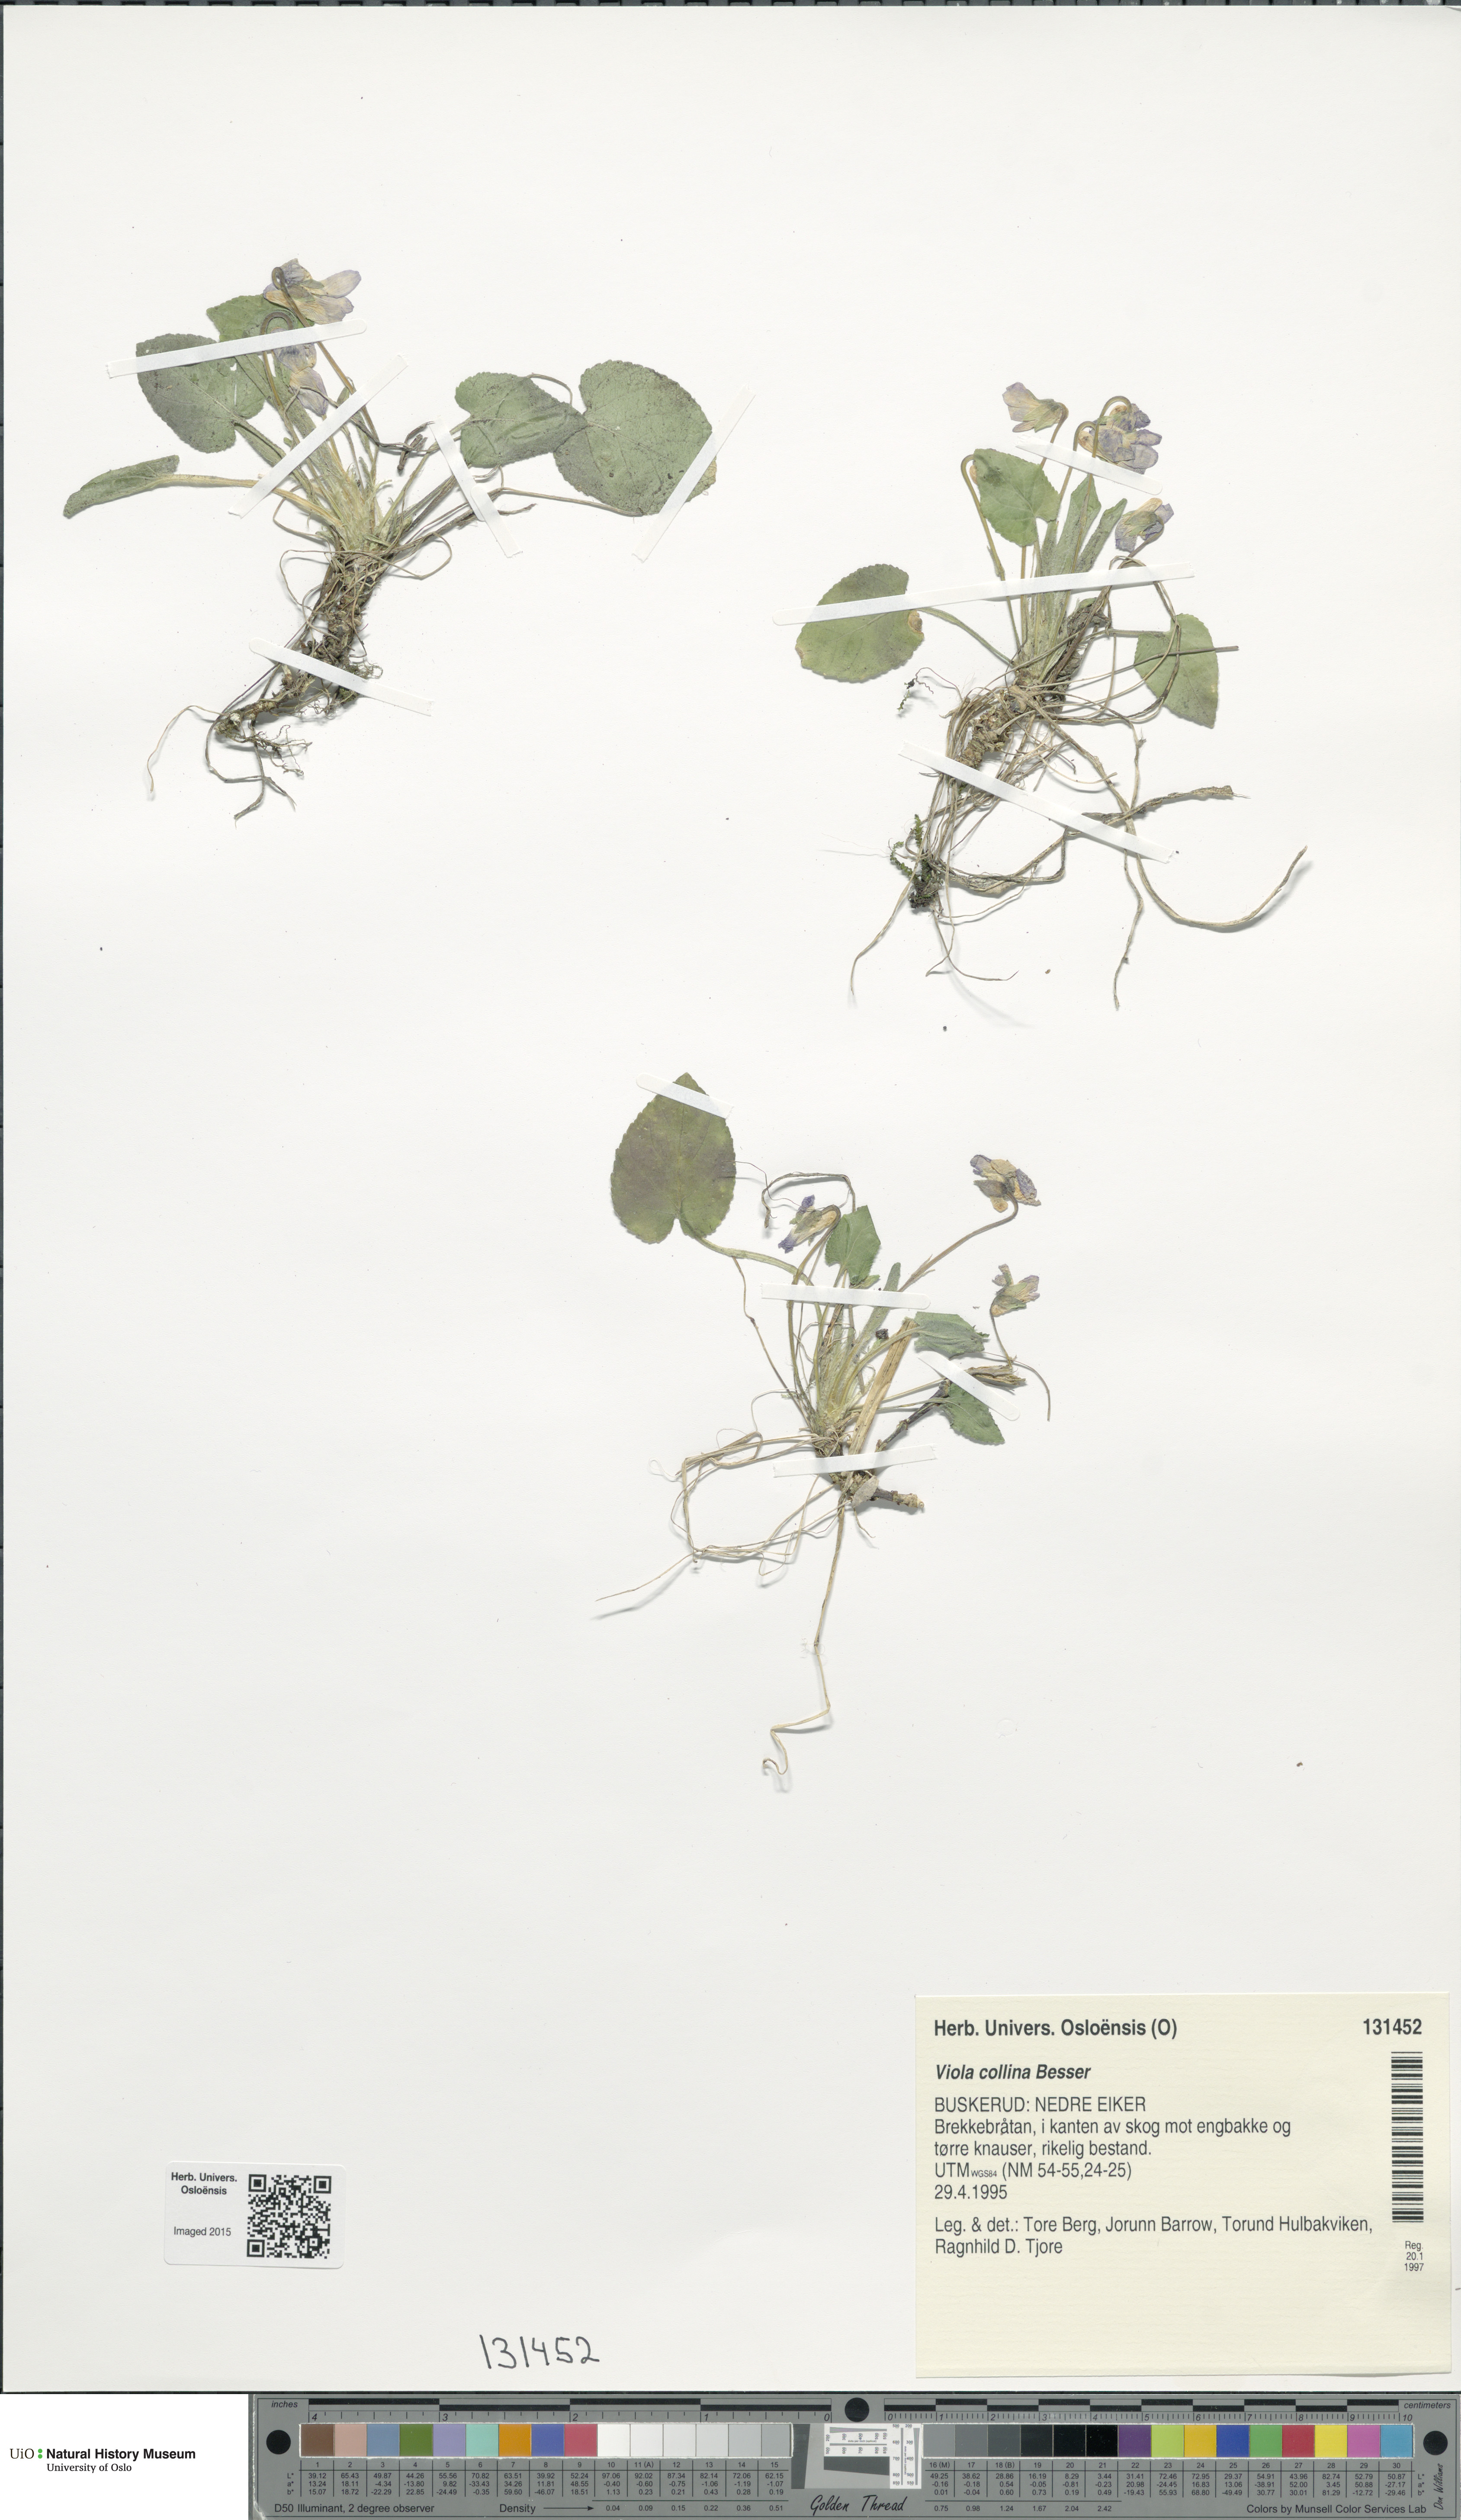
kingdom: Plantae
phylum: Tracheophyta
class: Magnoliopsida
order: Malpighiales
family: Violaceae
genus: Viola
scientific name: Viola collina
